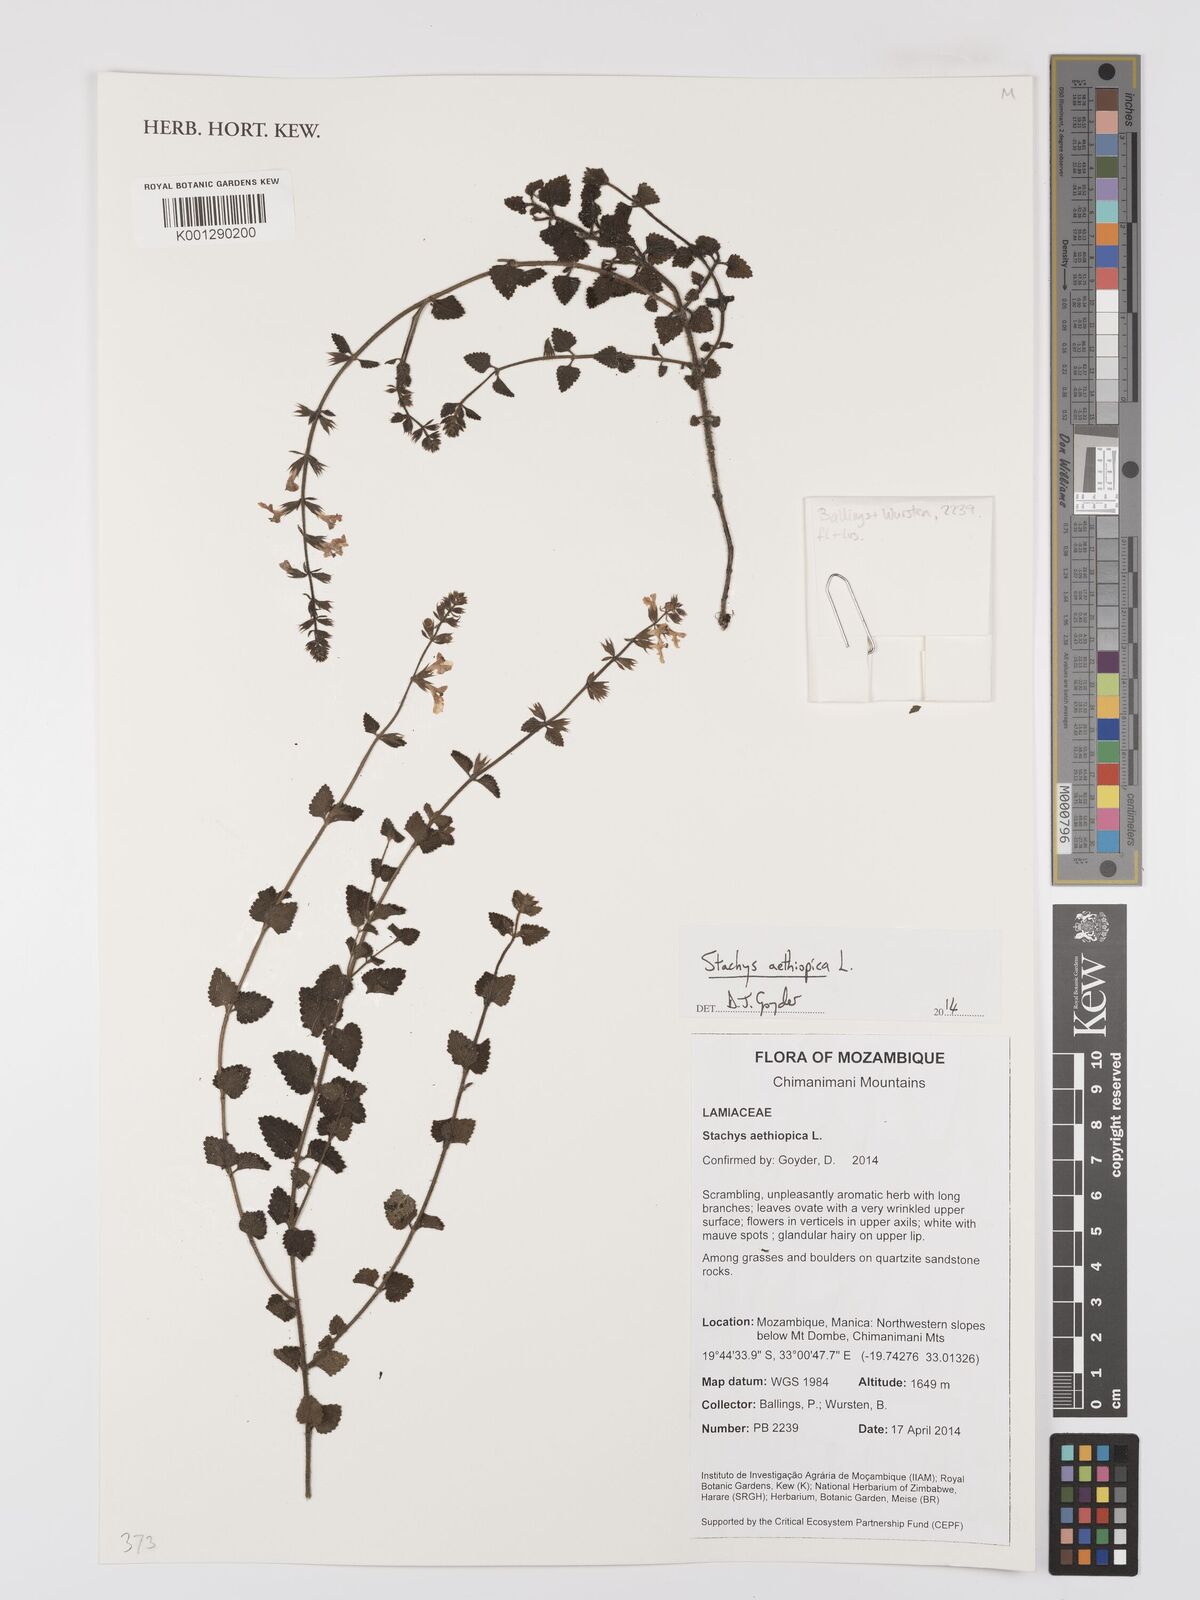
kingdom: Plantae
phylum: Tracheophyta
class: Magnoliopsida
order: Lamiales
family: Lamiaceae
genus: Stachys
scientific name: Stachys aethiopica
